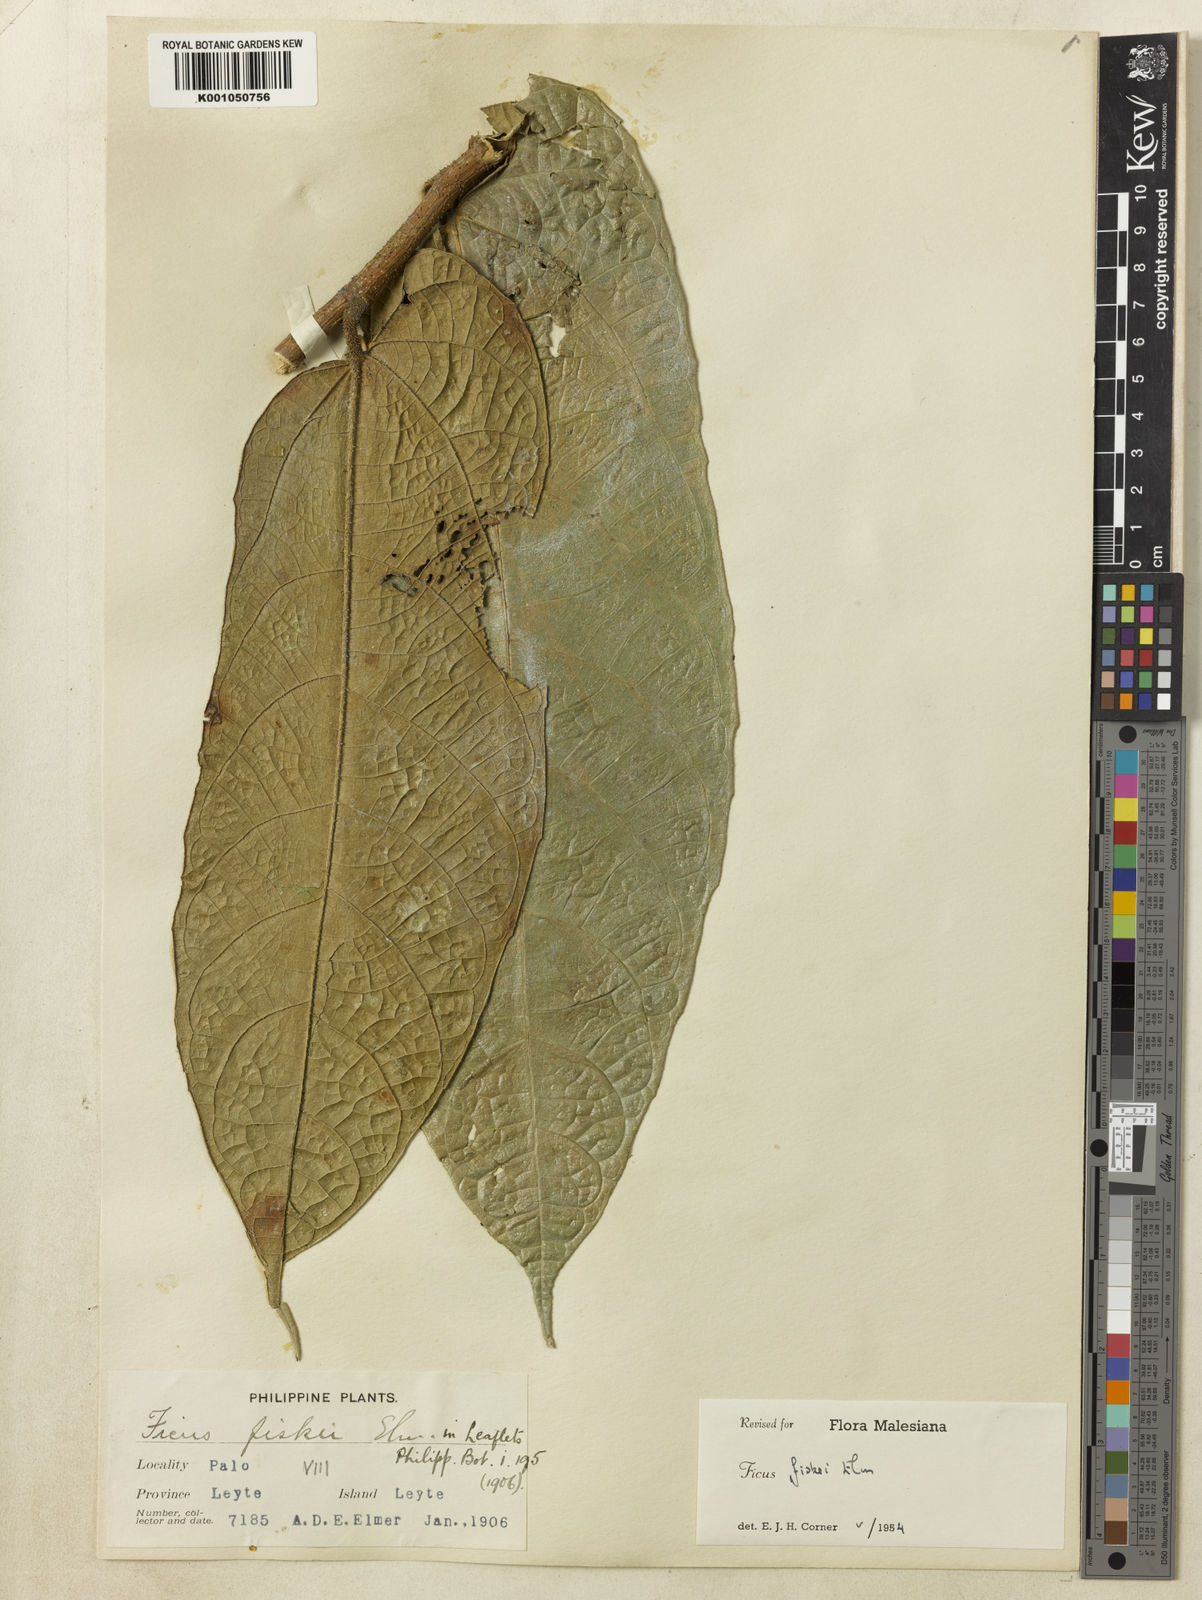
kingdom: Plantae
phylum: Tracheophyta
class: Magnoliopsida
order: Rosales
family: Moraceae
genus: Ficus
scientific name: Ficus fiskei
